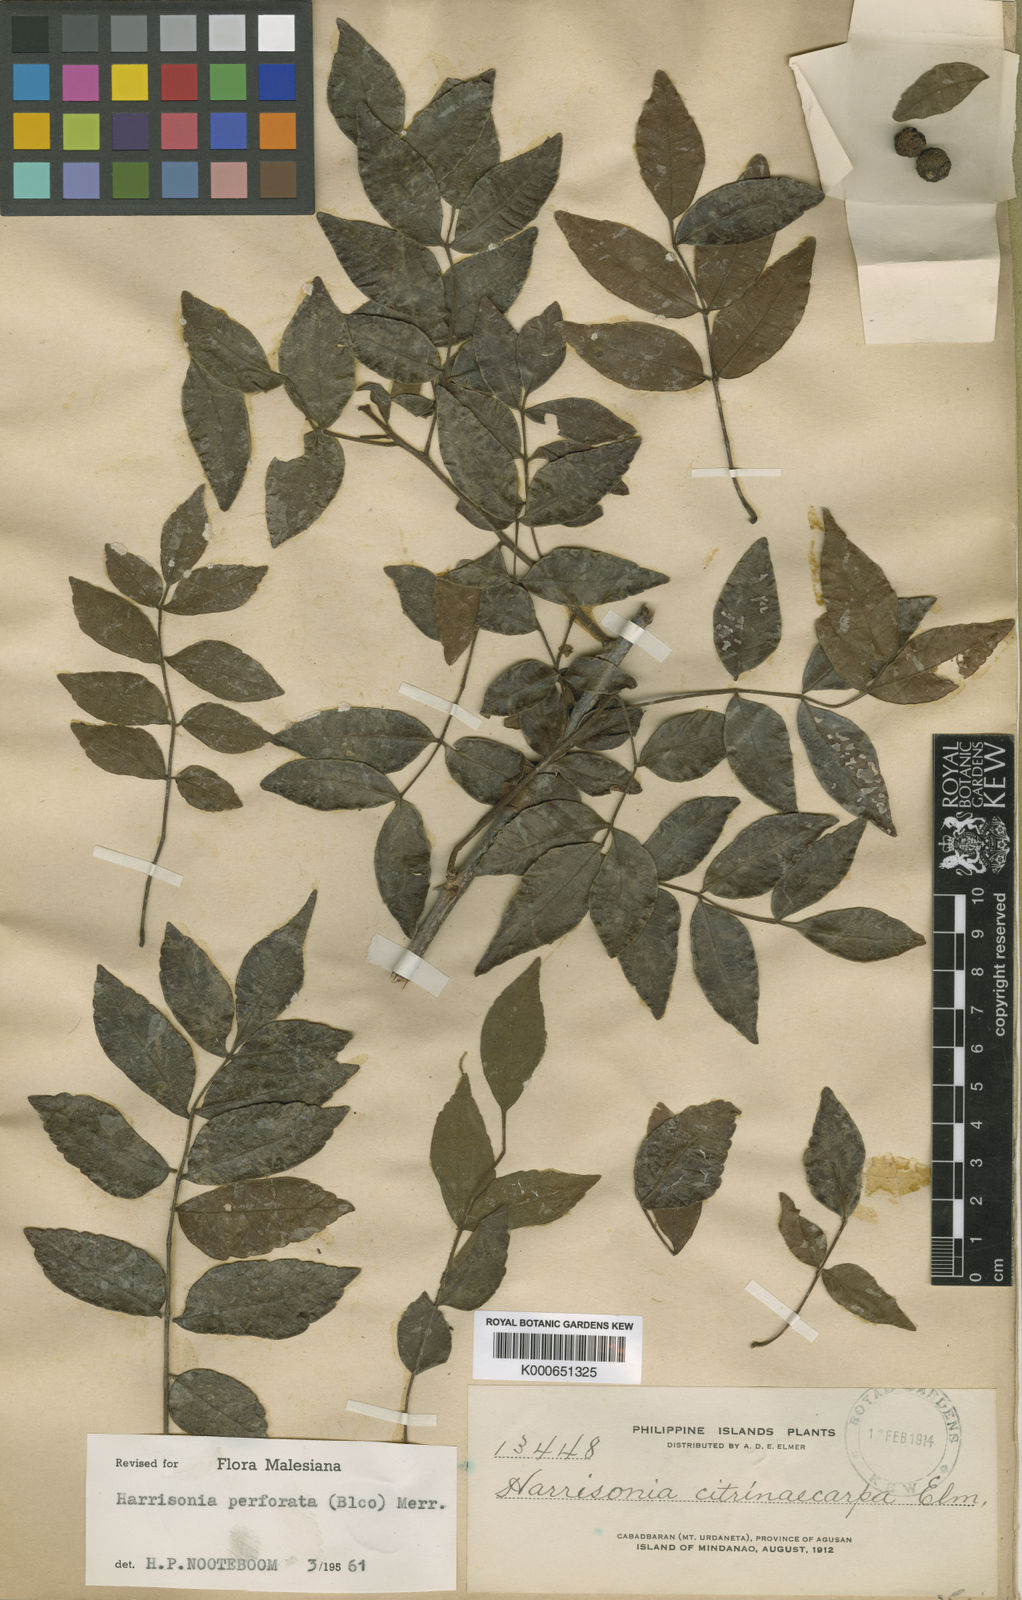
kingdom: Plantae
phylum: Tracheophyta
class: Magnoliopsida
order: Sapindales
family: Rutaceae
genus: Harrisonia
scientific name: Harrisonia perforata
